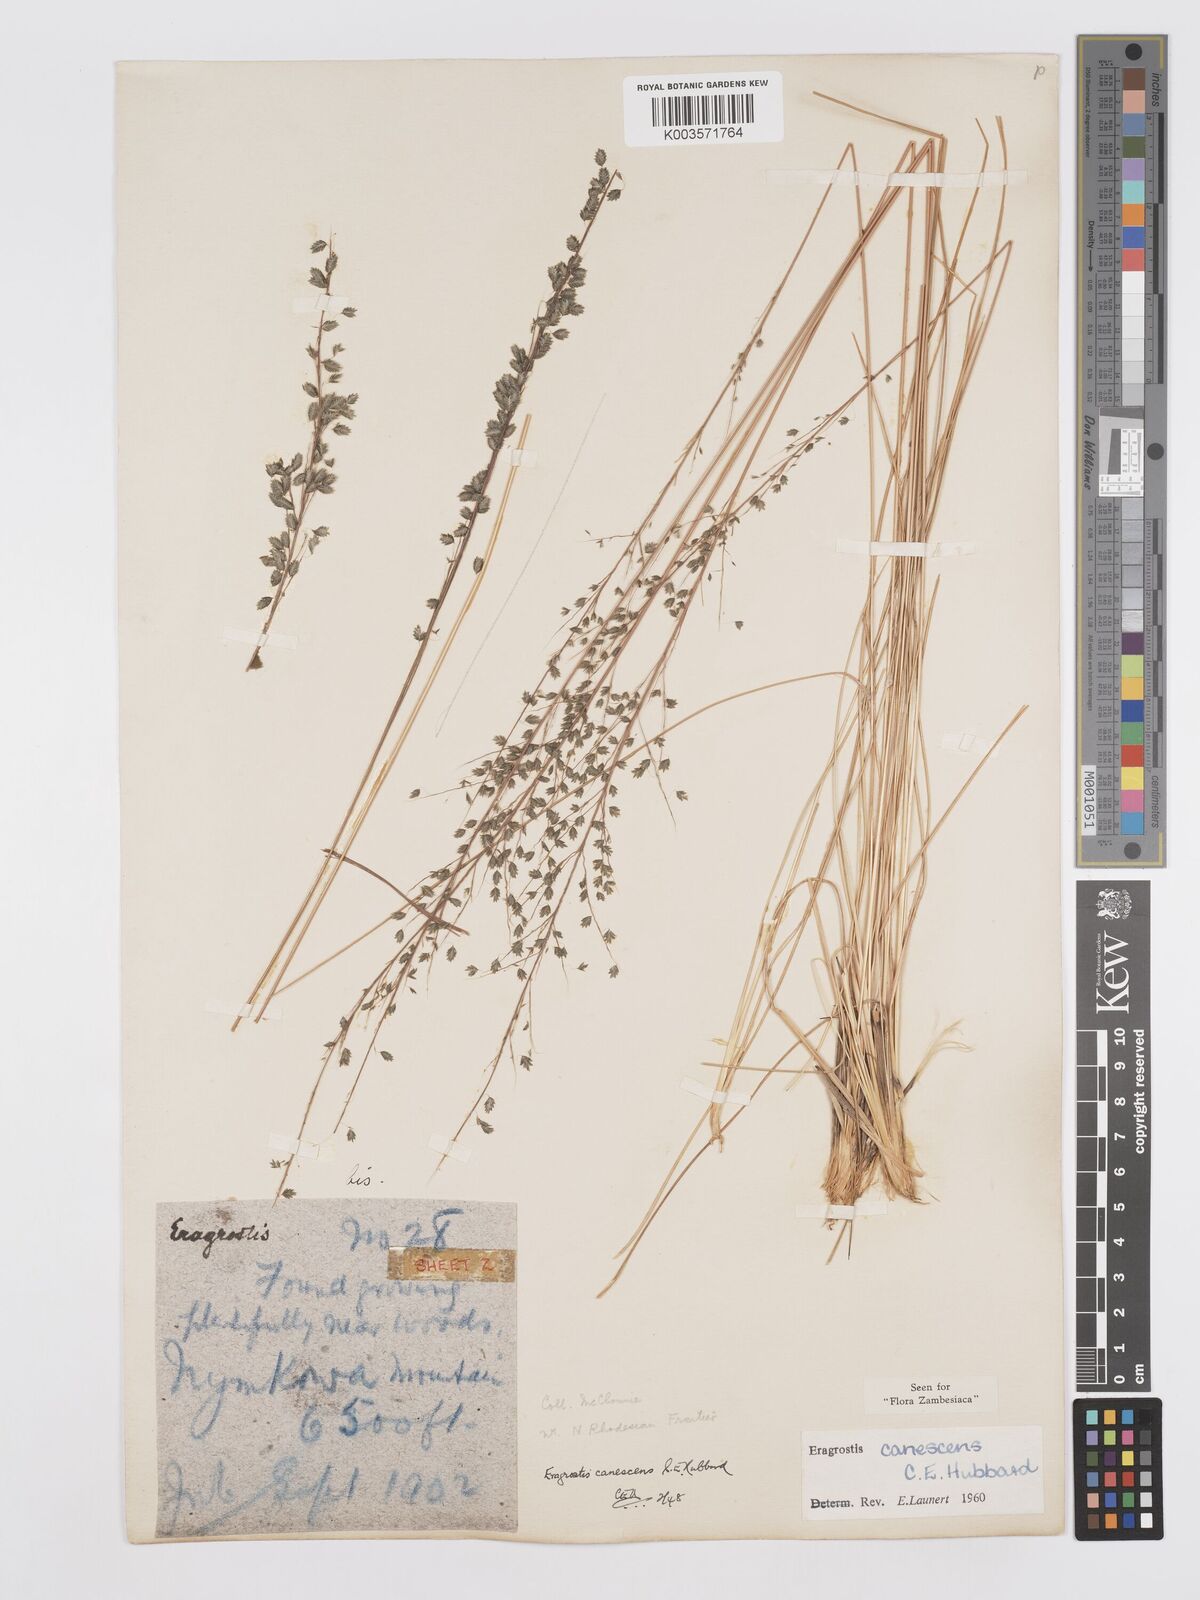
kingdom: Plantae
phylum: Tracheophyta
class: Liliopsida
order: Poales
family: Poaceae
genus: Eragrostis
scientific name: Eragrostis canescens
